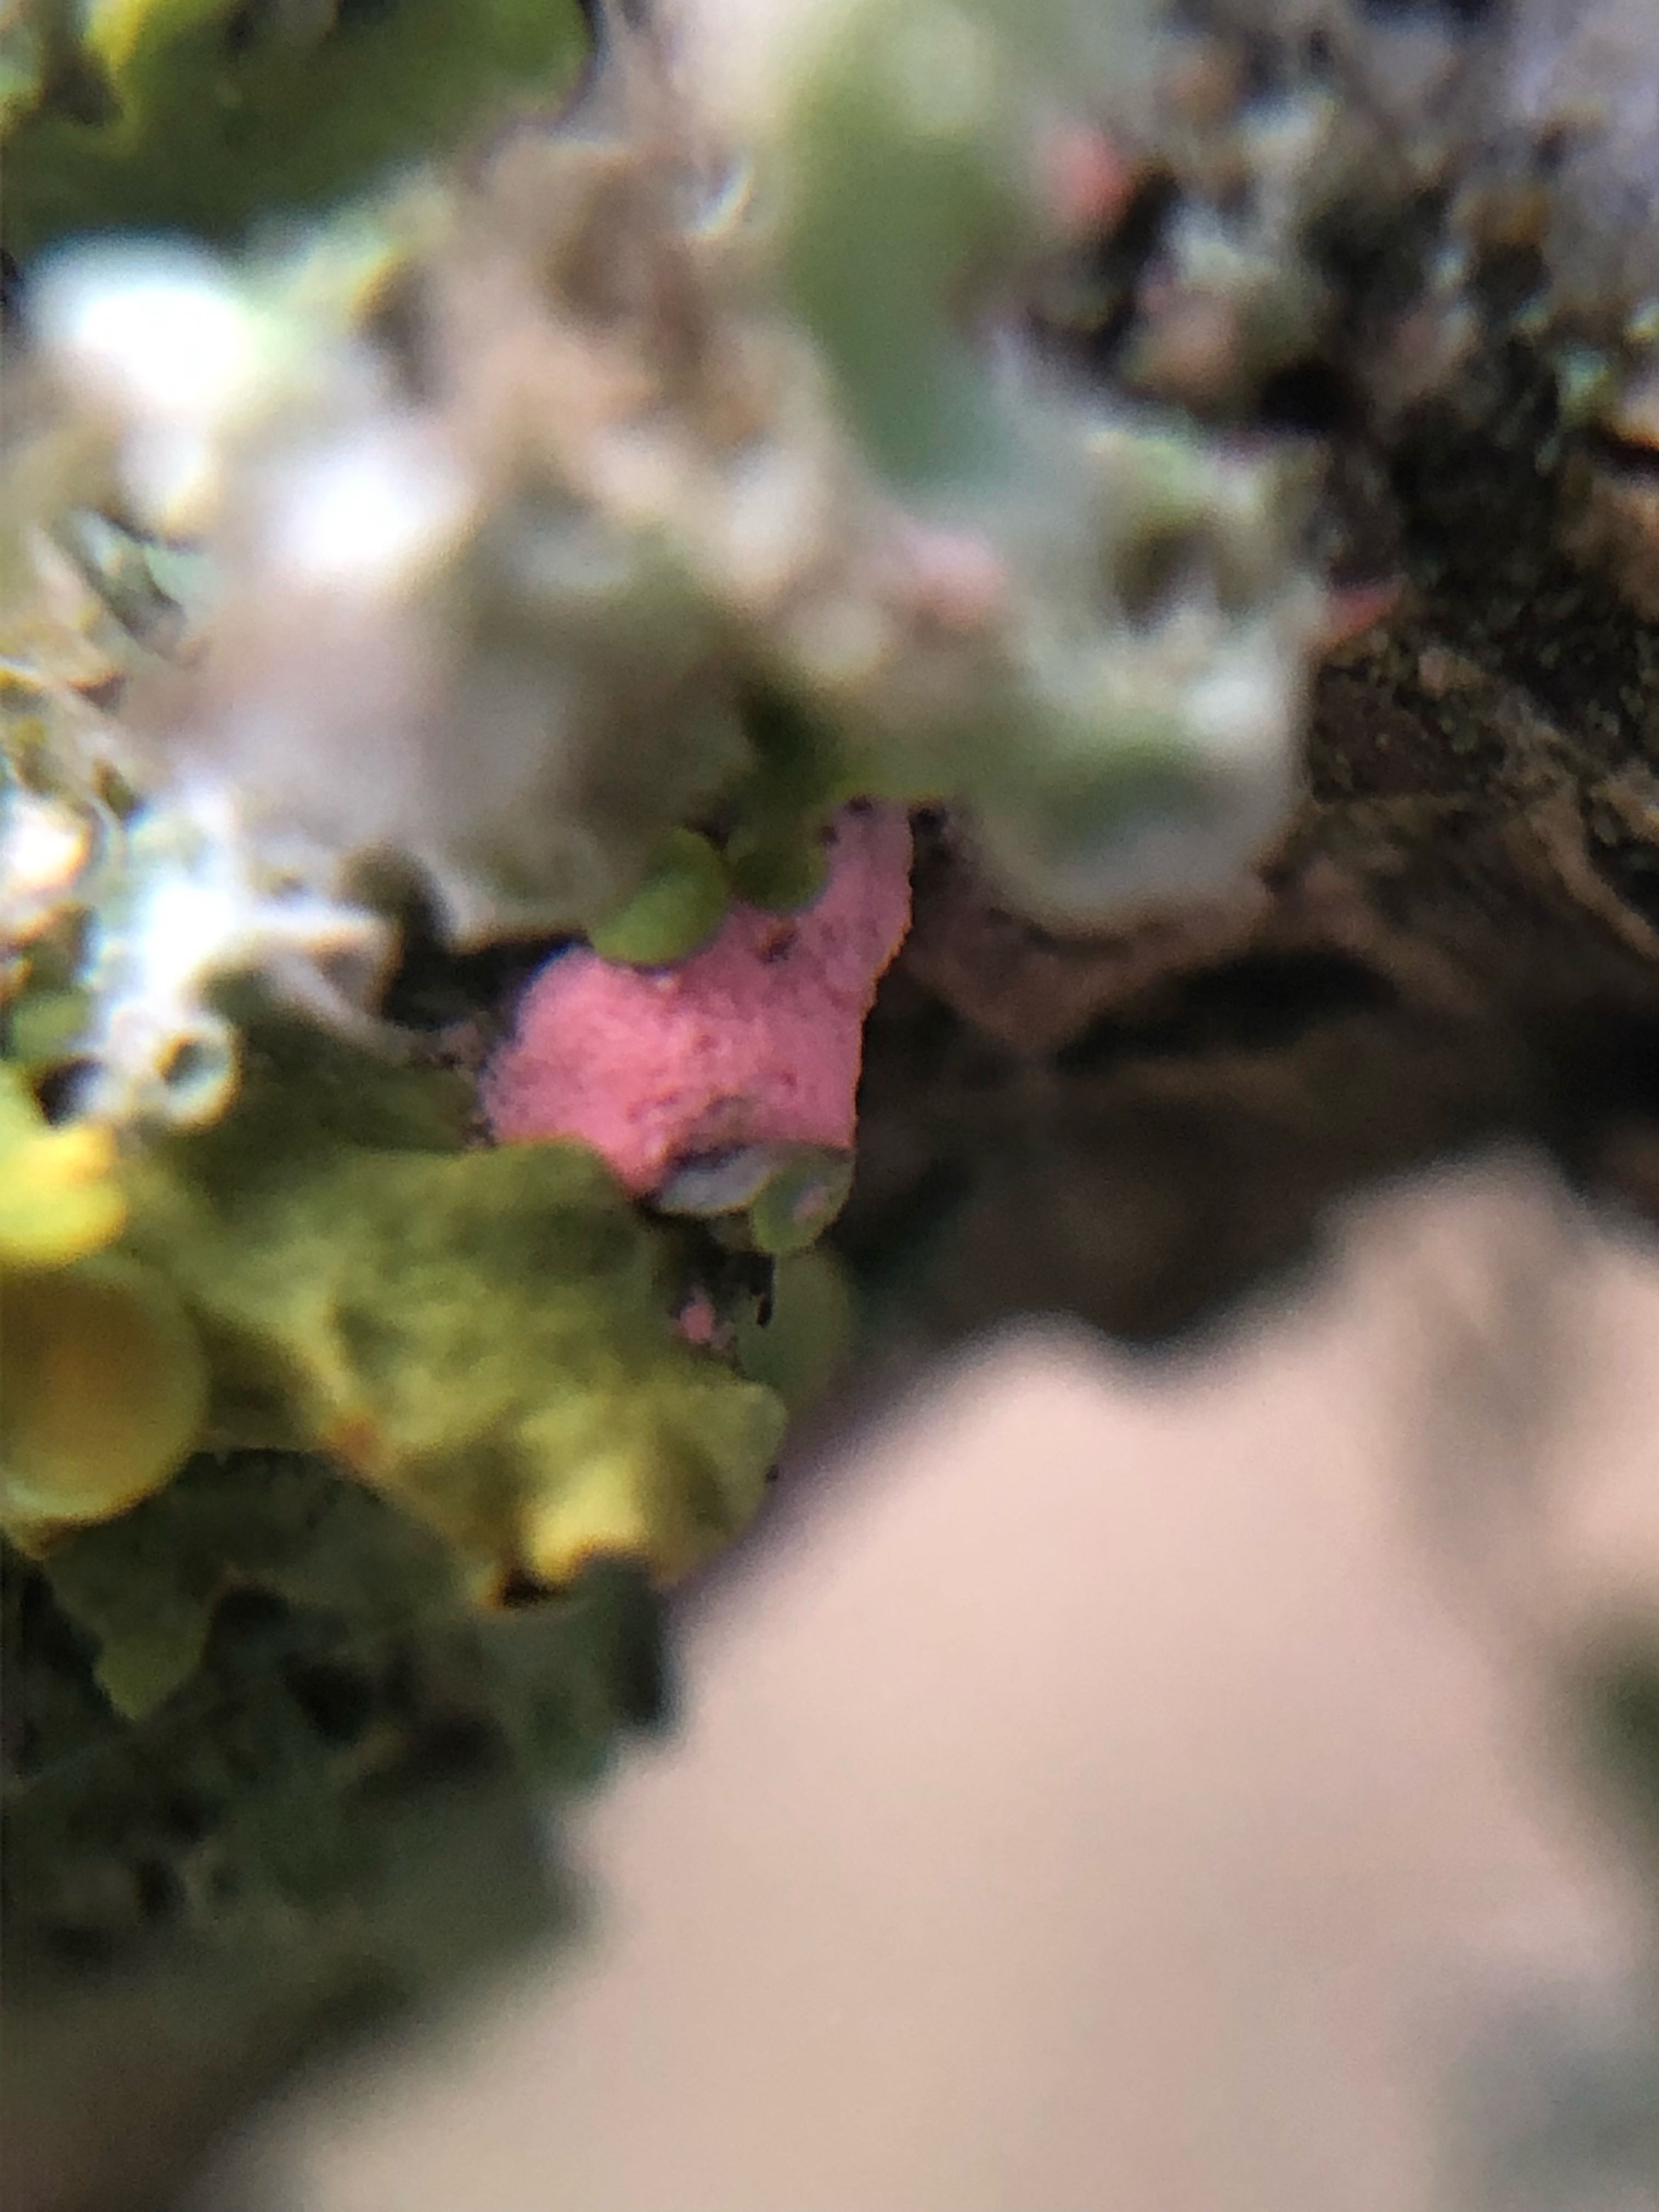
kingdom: Fungi
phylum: Ascomycota
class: Sordariomycetes
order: Hypocreales
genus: Illosporiopsis
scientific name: Illosporiopsis christiansenii
